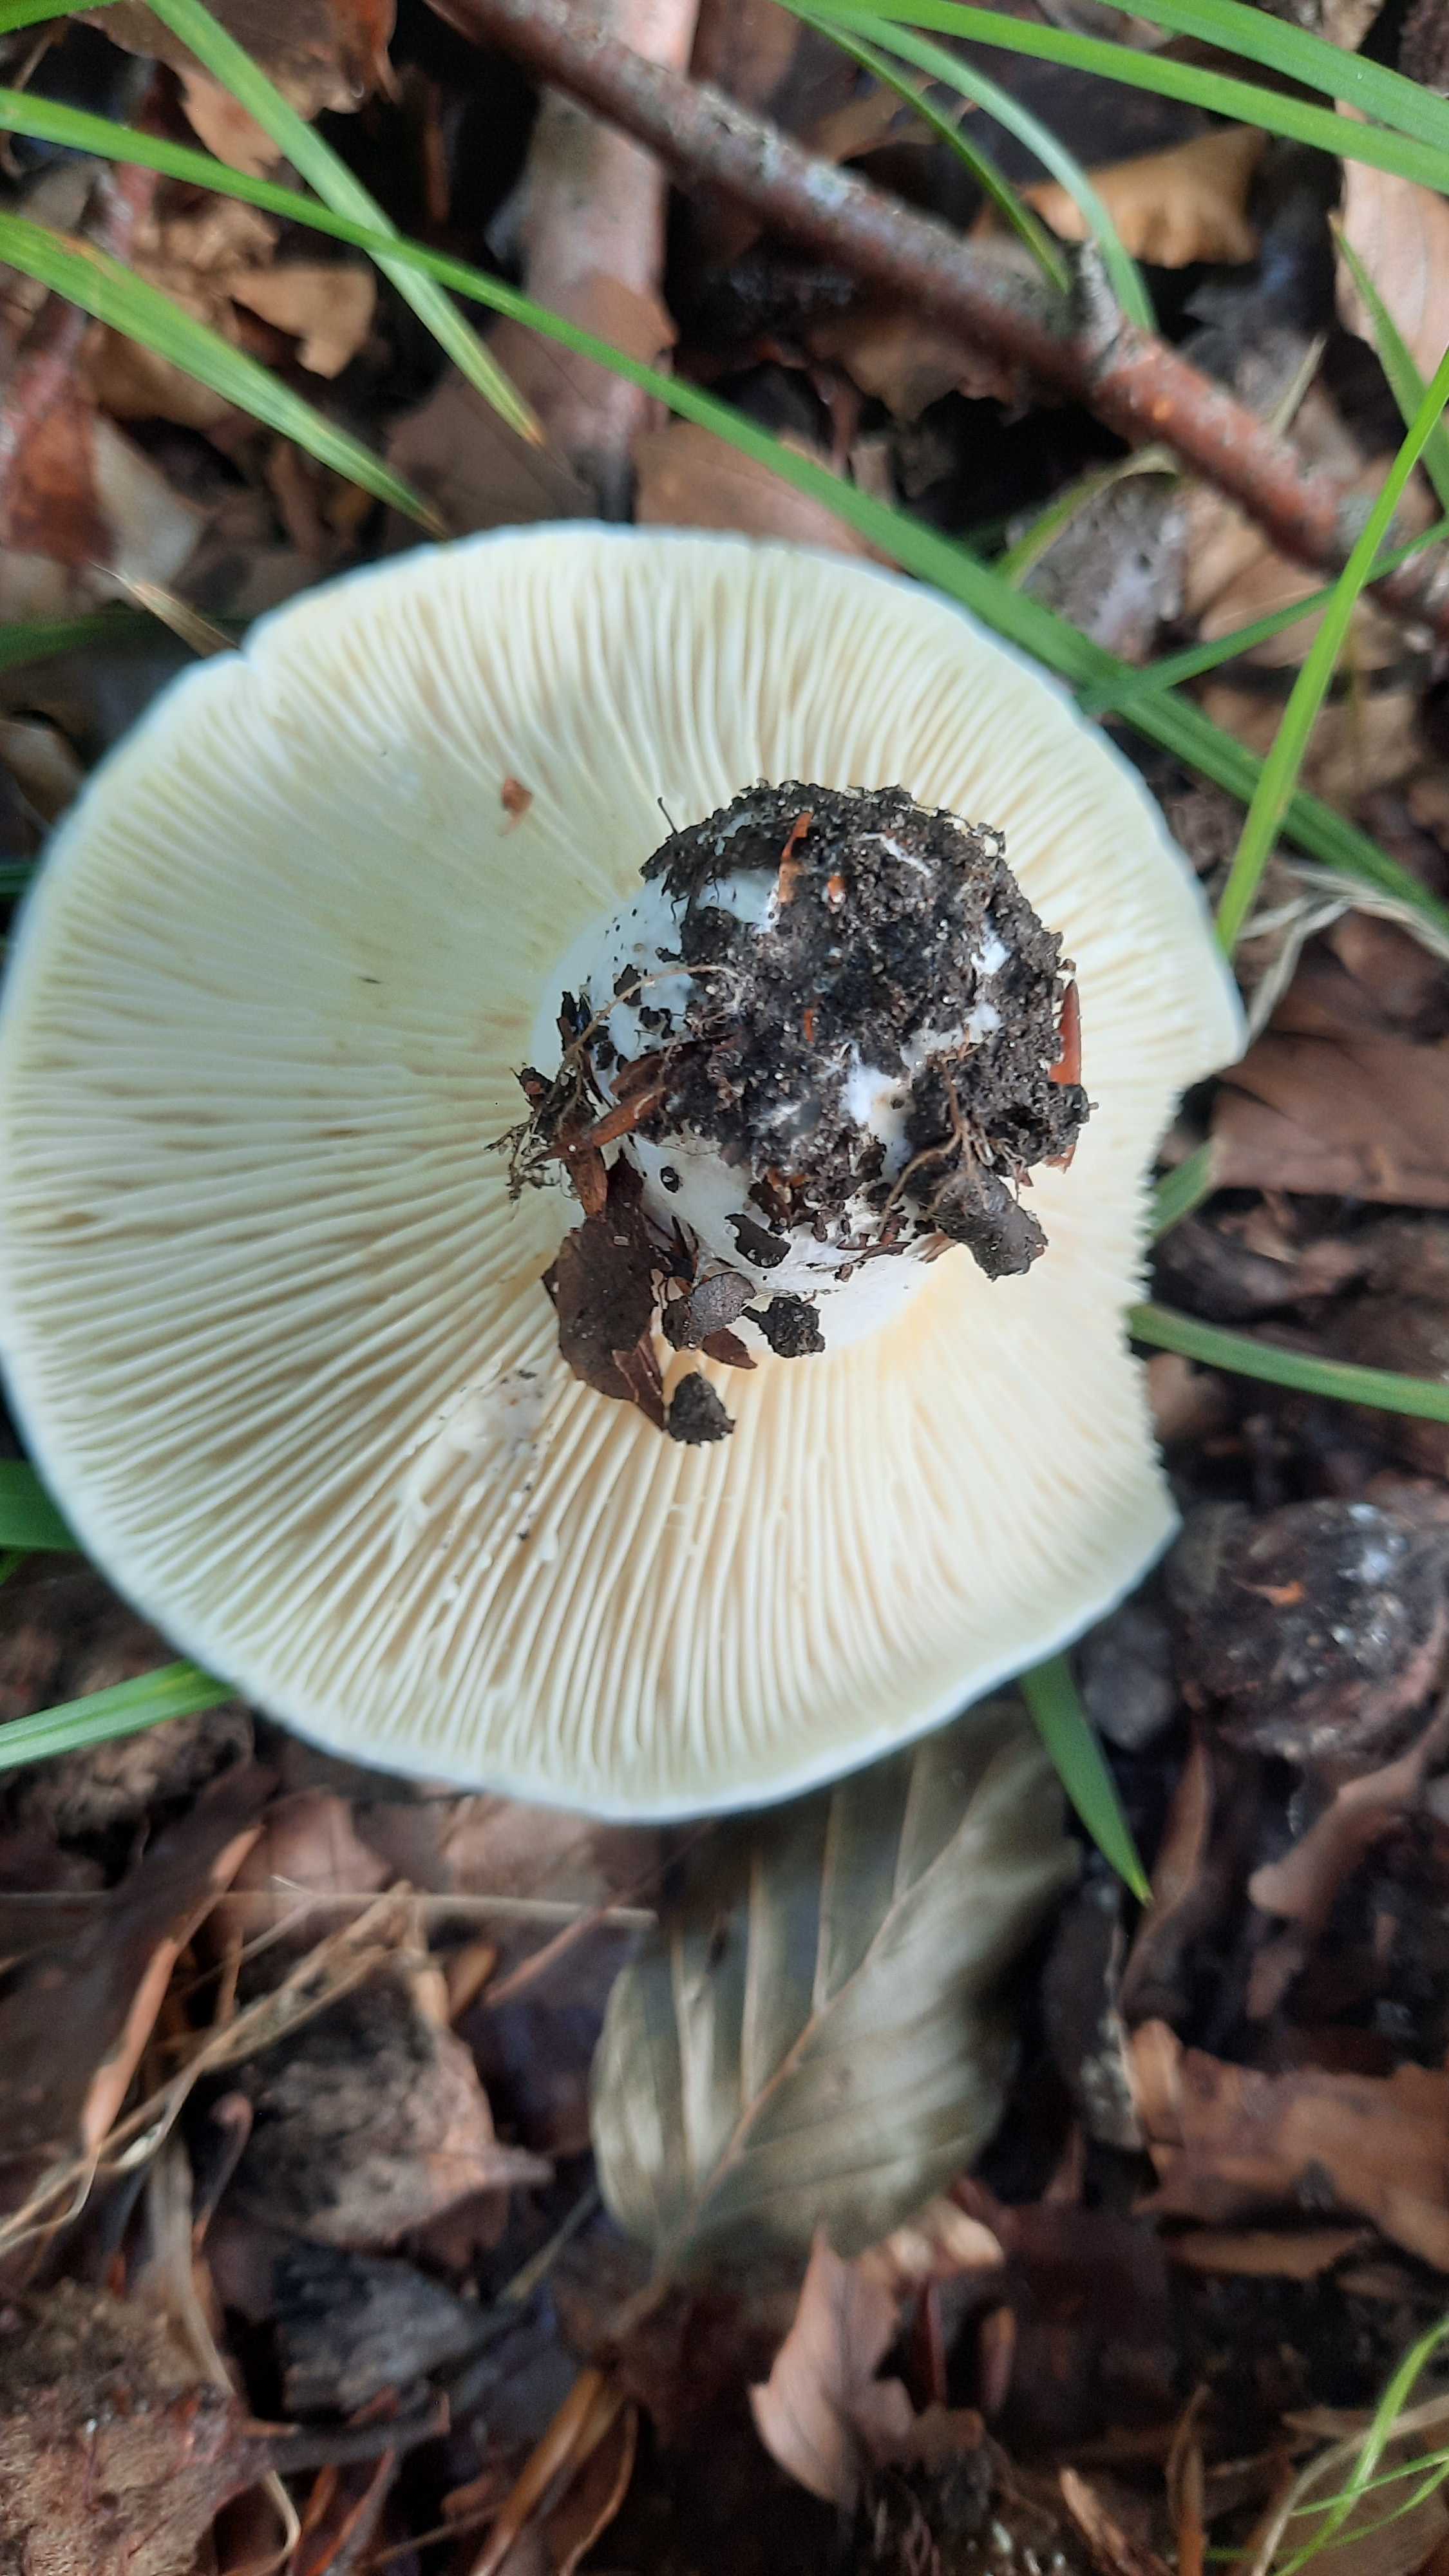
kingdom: Fungi
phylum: Basidiomycota
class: Agaricomycetes
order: Russulales
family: Russulaceae
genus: Lactifluus
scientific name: Lactifluus
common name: mælkehat
